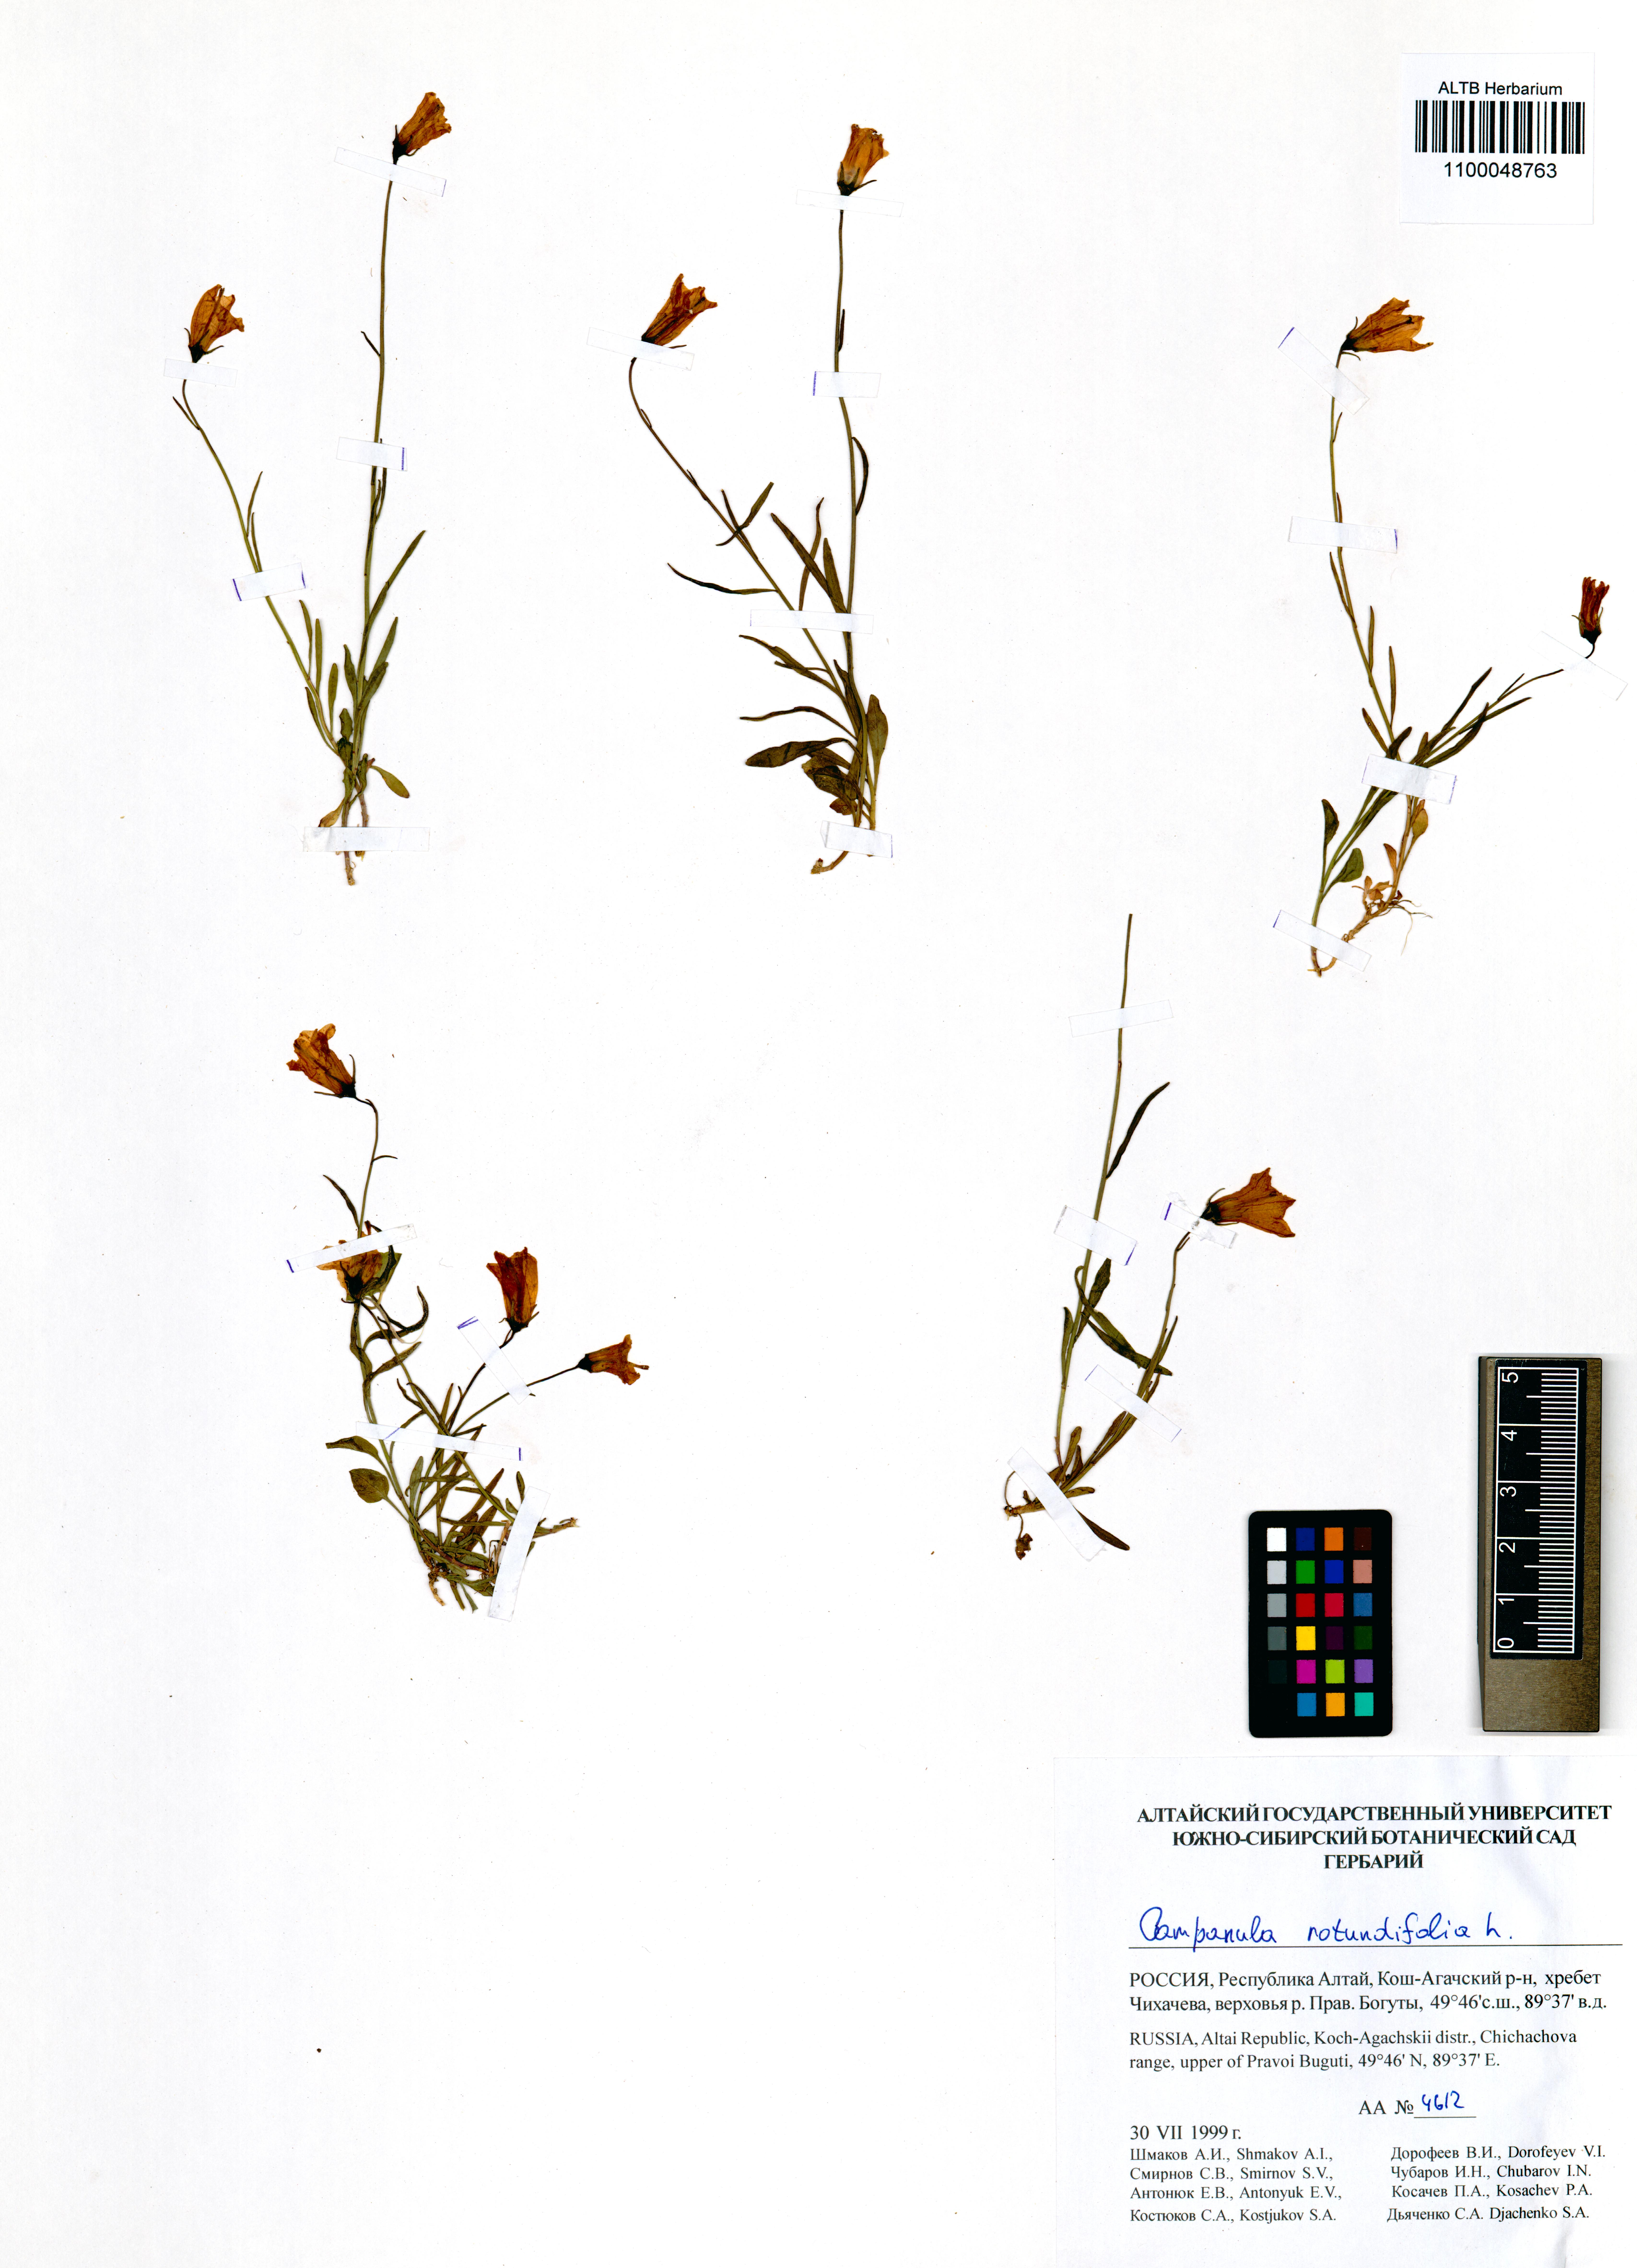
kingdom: Plantae
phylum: Tracheophyta
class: Magnoliopsida
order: Asterales
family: Campanulaceae
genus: Campanula
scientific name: Campanula rotundifolia
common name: Harebell
